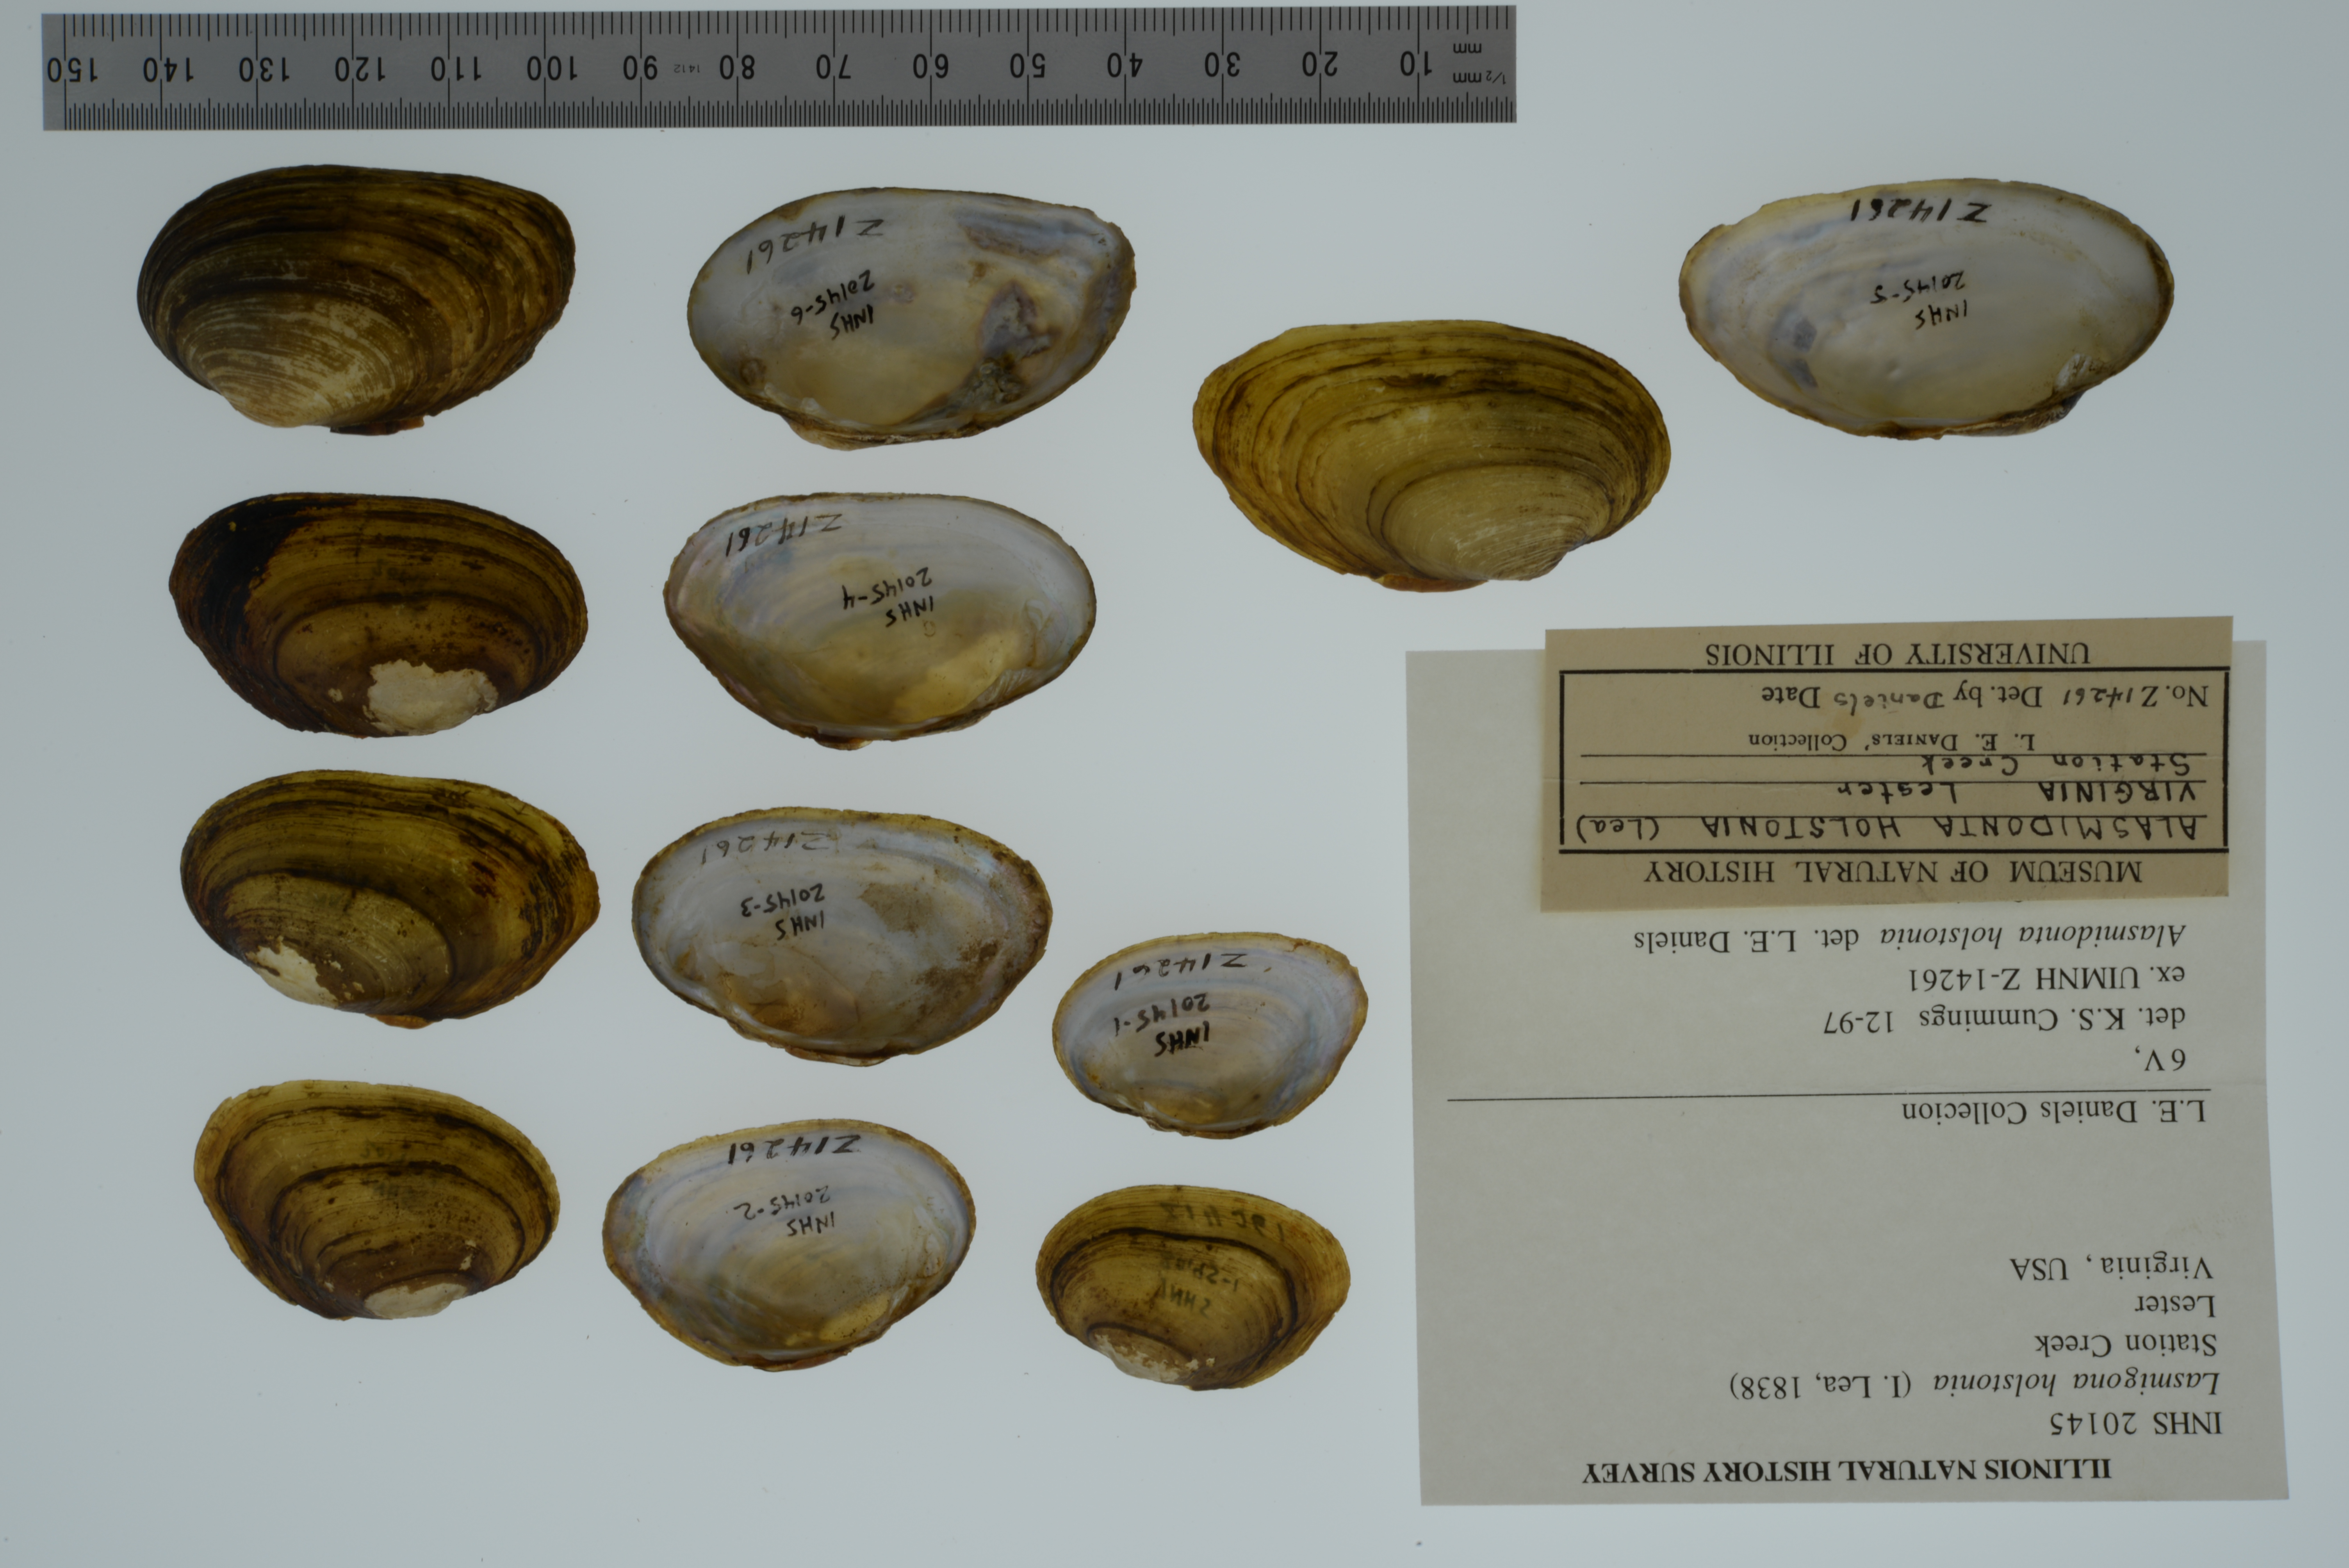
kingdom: Animalia
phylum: Mollusca
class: Bivalvia
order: Unionida
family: Unionidae
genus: Lasmigona
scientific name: Lasmigona holstonia
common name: Tennessee heelsplitter
